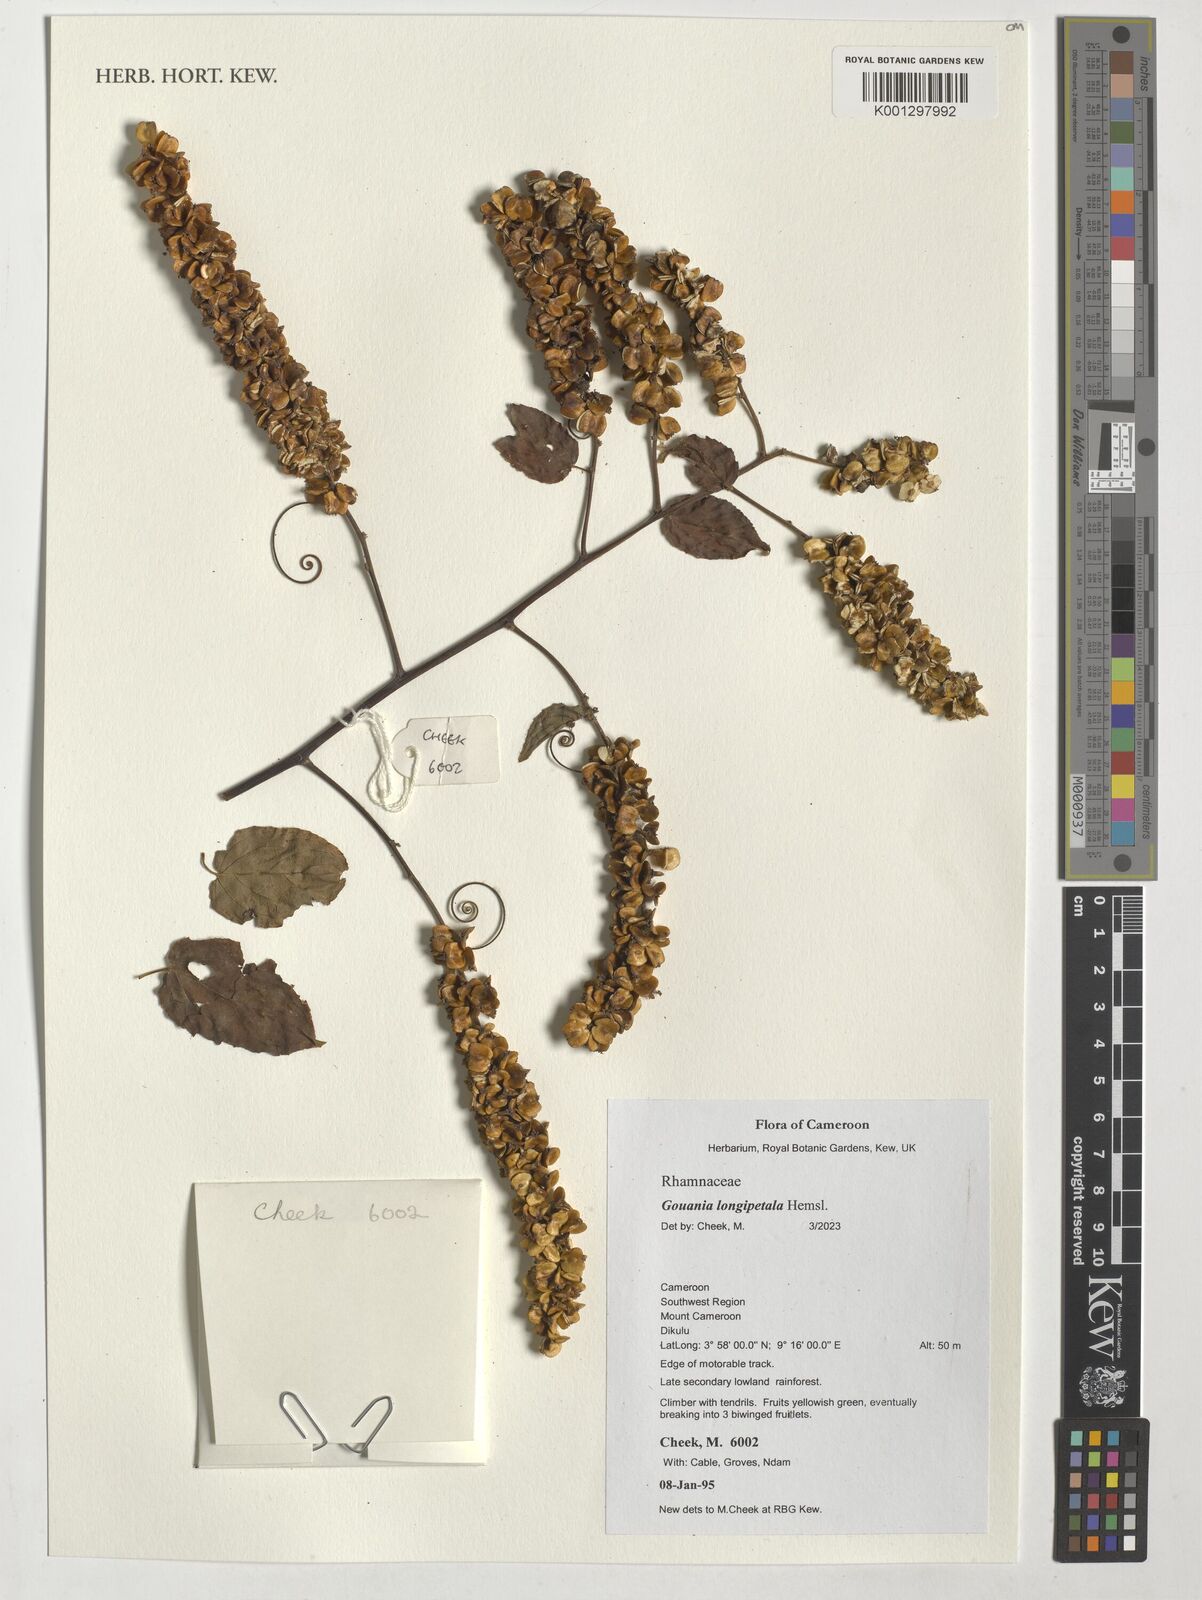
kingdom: Plantae
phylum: Tracheophyta
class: Magnoliopsida
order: Rosales
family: Rhamnaceae
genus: Gouania
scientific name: Gouania longipetala
